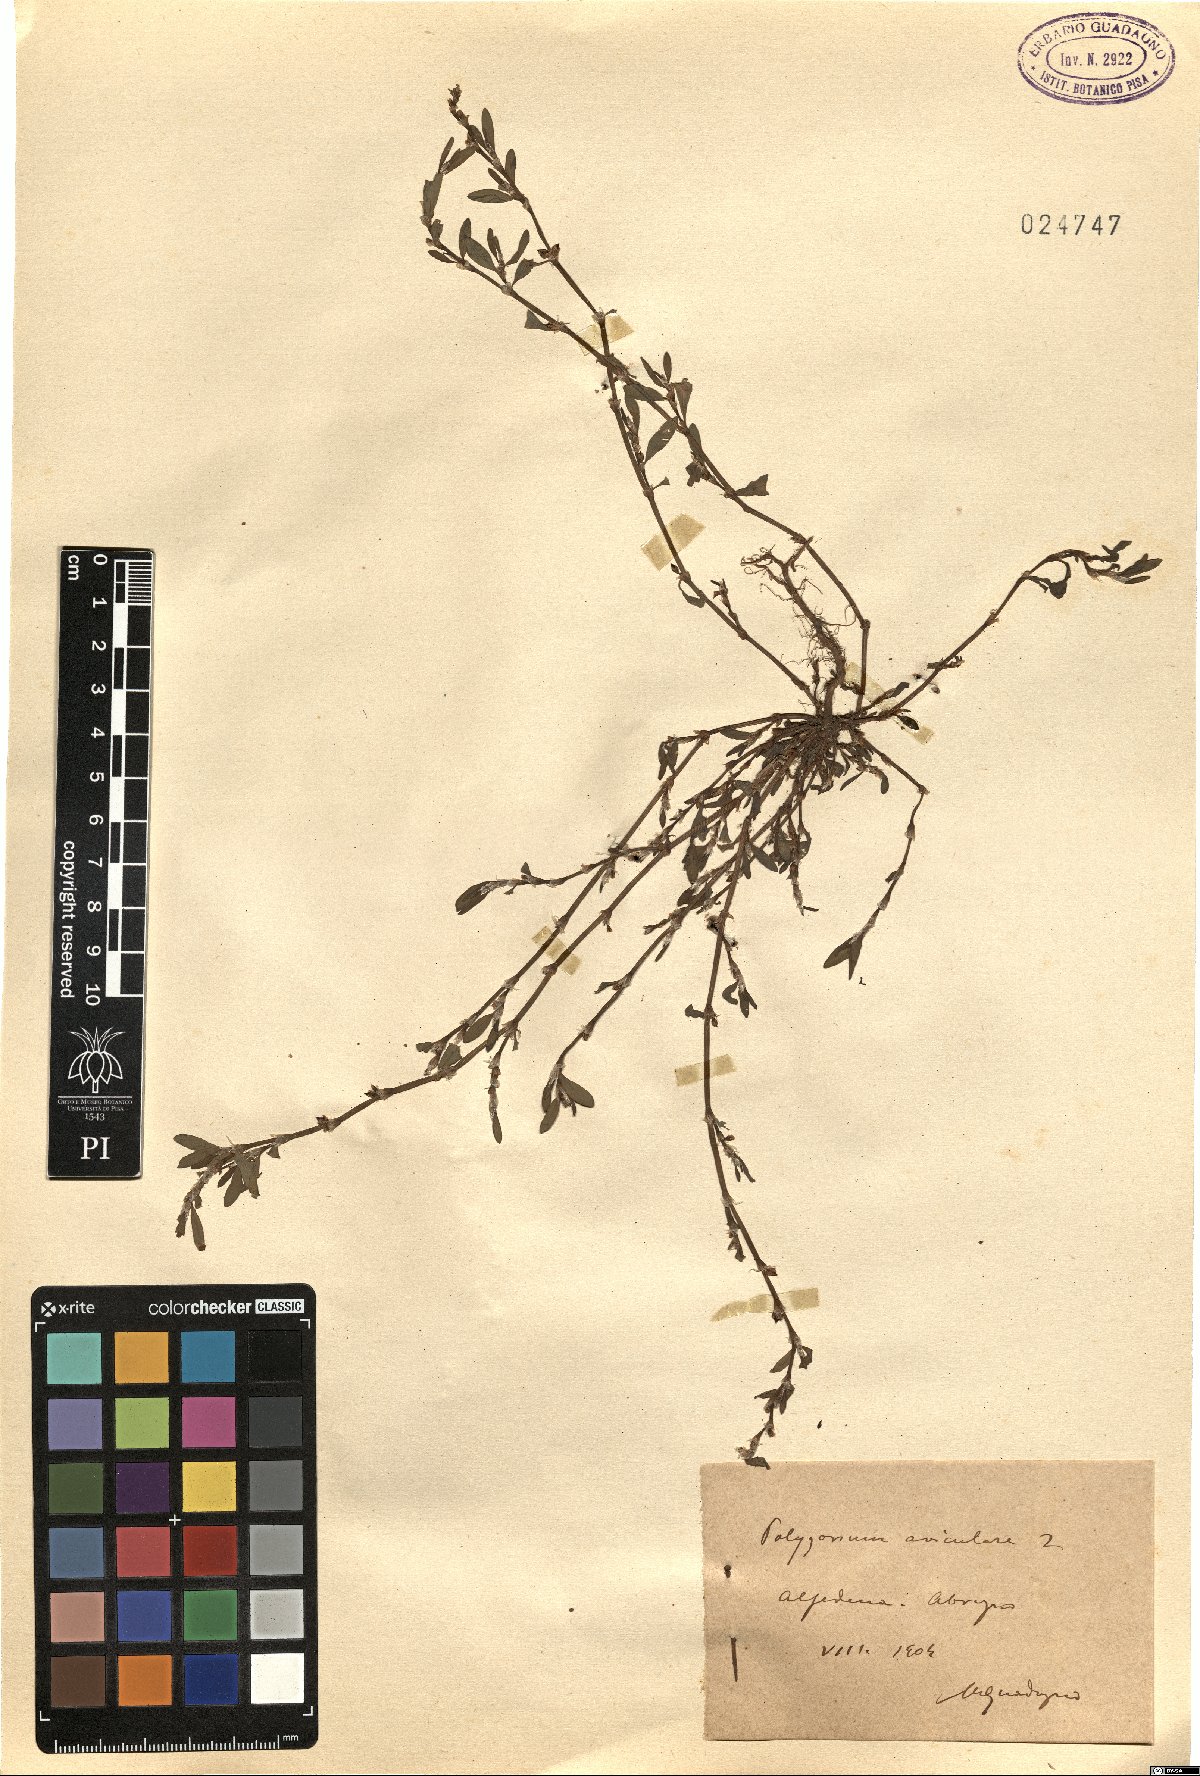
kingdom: Plantae
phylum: Tracheophyta
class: Magnoliopsida
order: Caryophyllales
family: Polygonaceae
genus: Polygonum
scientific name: Polygonum aviculare
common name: Prostrate knotweed
